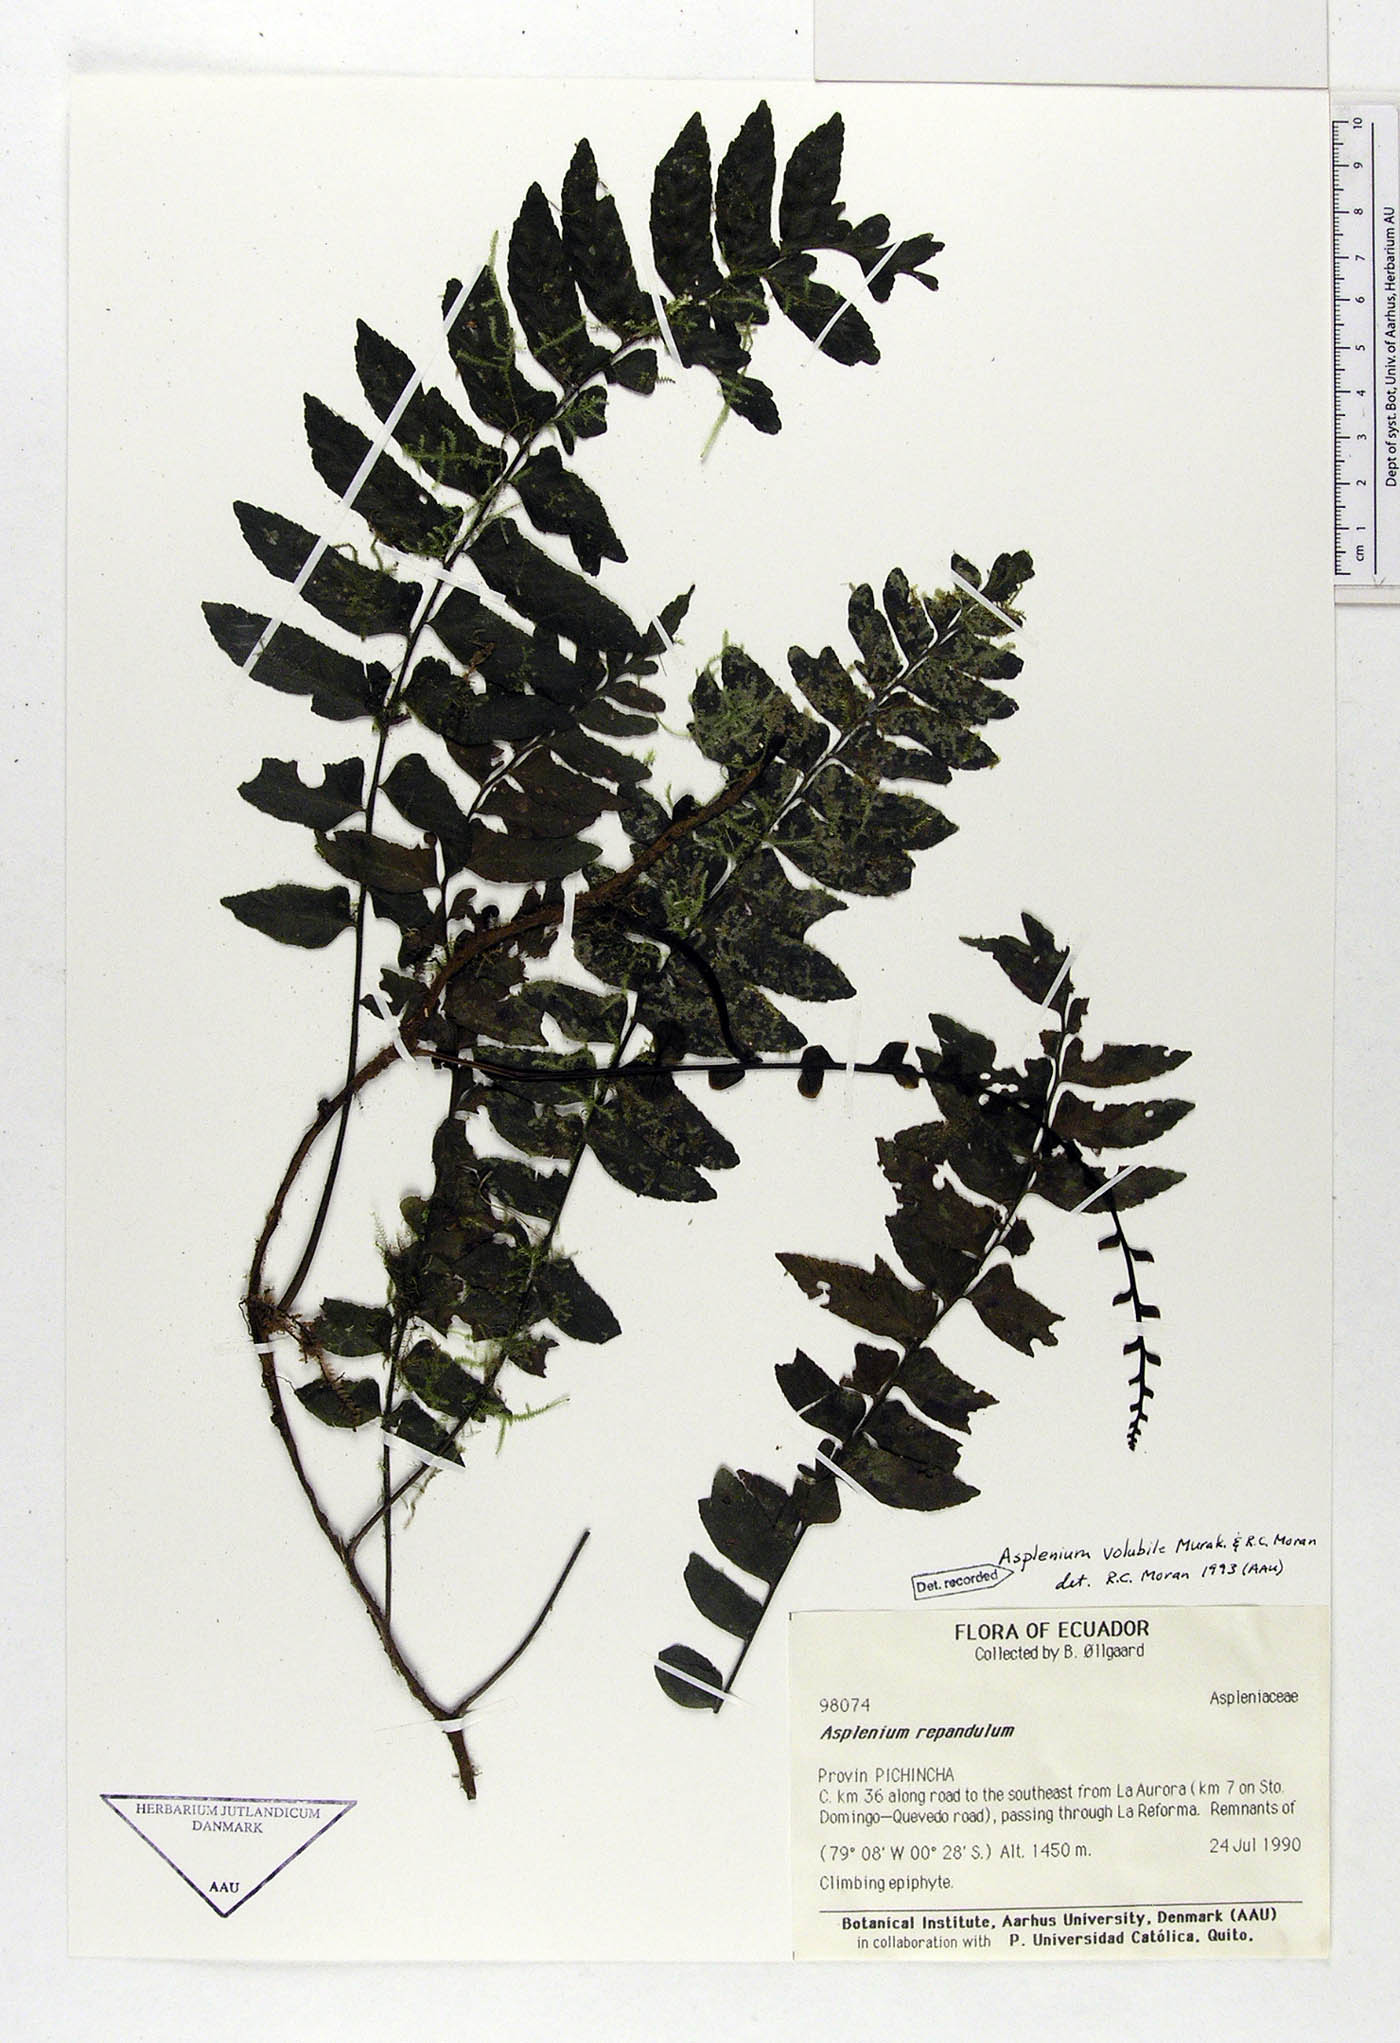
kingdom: Plantae
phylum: Tracheophyta
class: Polypodiopsida
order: Polypodiales
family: Aspleniaceae
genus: Hymenasplenium
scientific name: Hymenasplenium volubile
